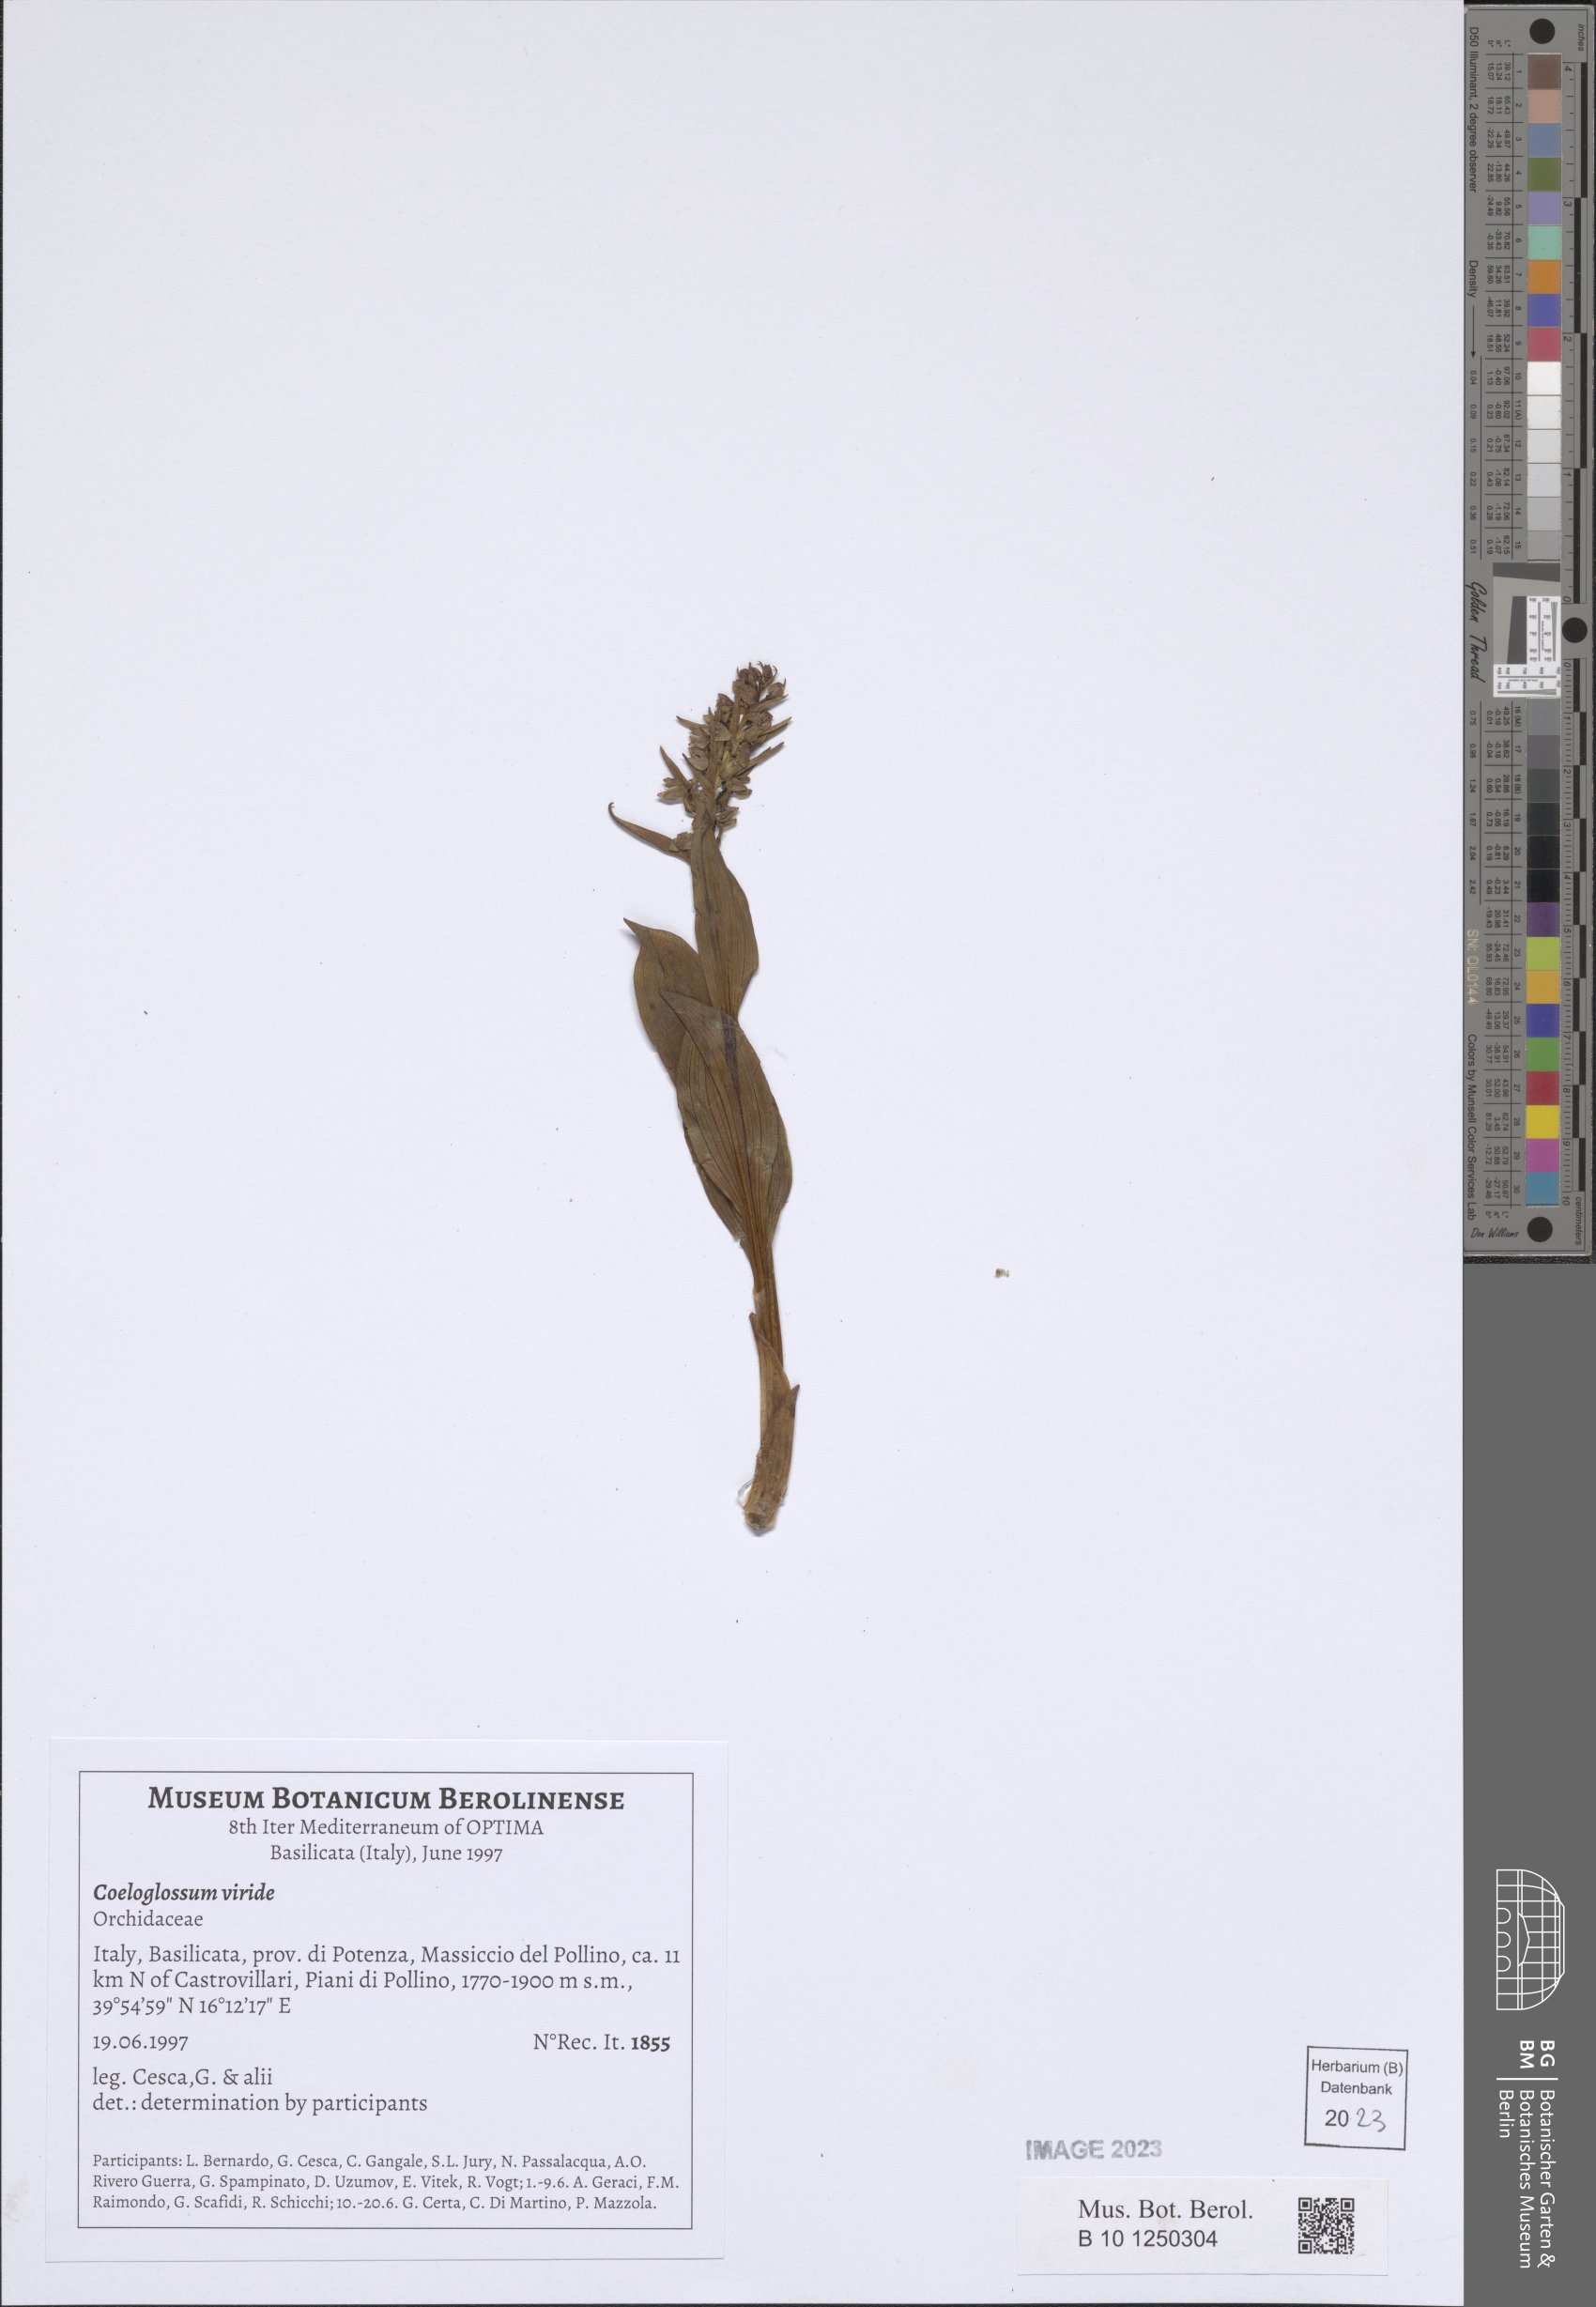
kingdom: Plantae
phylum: Tracheophyta
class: Liliopsida
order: Asparagales
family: Orchidaceae
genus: Dactylorhiza
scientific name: Dactylorhiza viridis
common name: Longbract frog orchid
